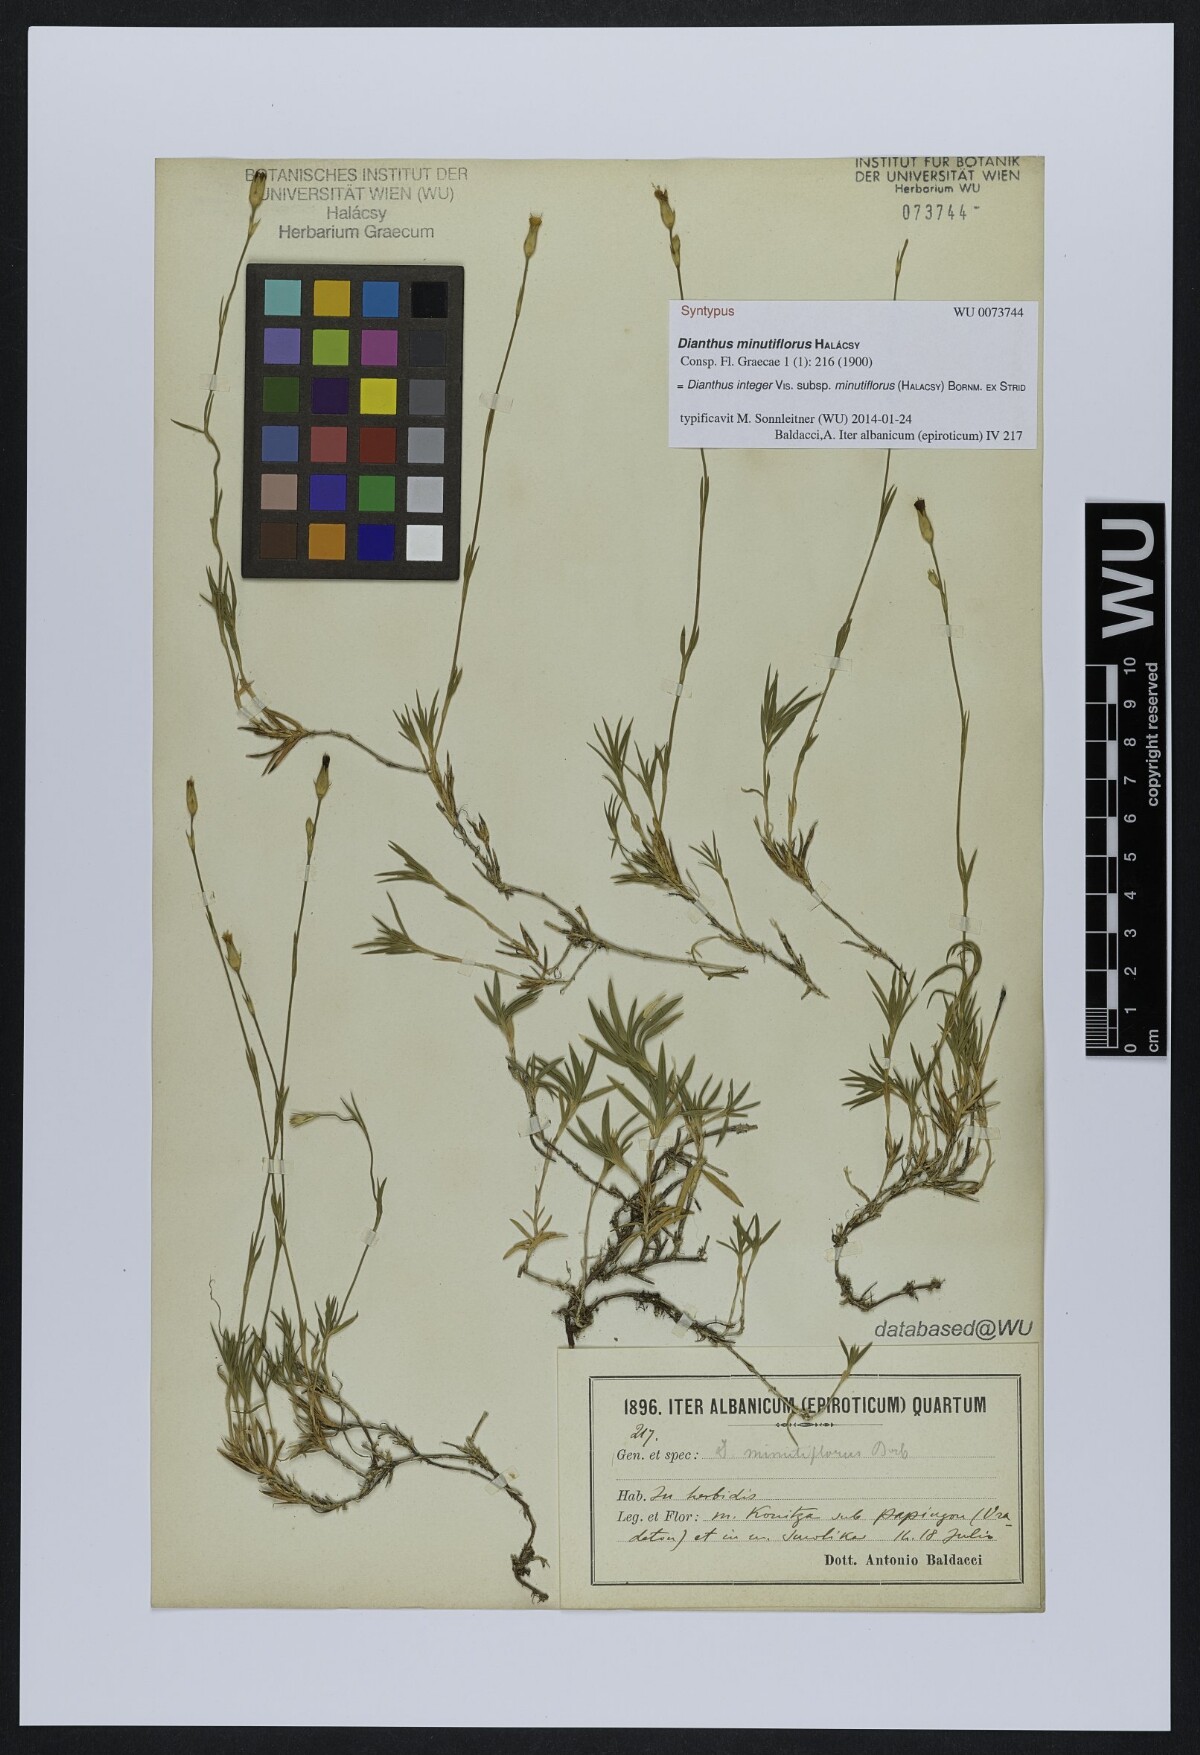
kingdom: Plantae
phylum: Tracheophyta
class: Magnoliopsida
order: Caryophyllales
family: Caryophyllaceae
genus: Dianthus
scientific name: Dianthus integer
